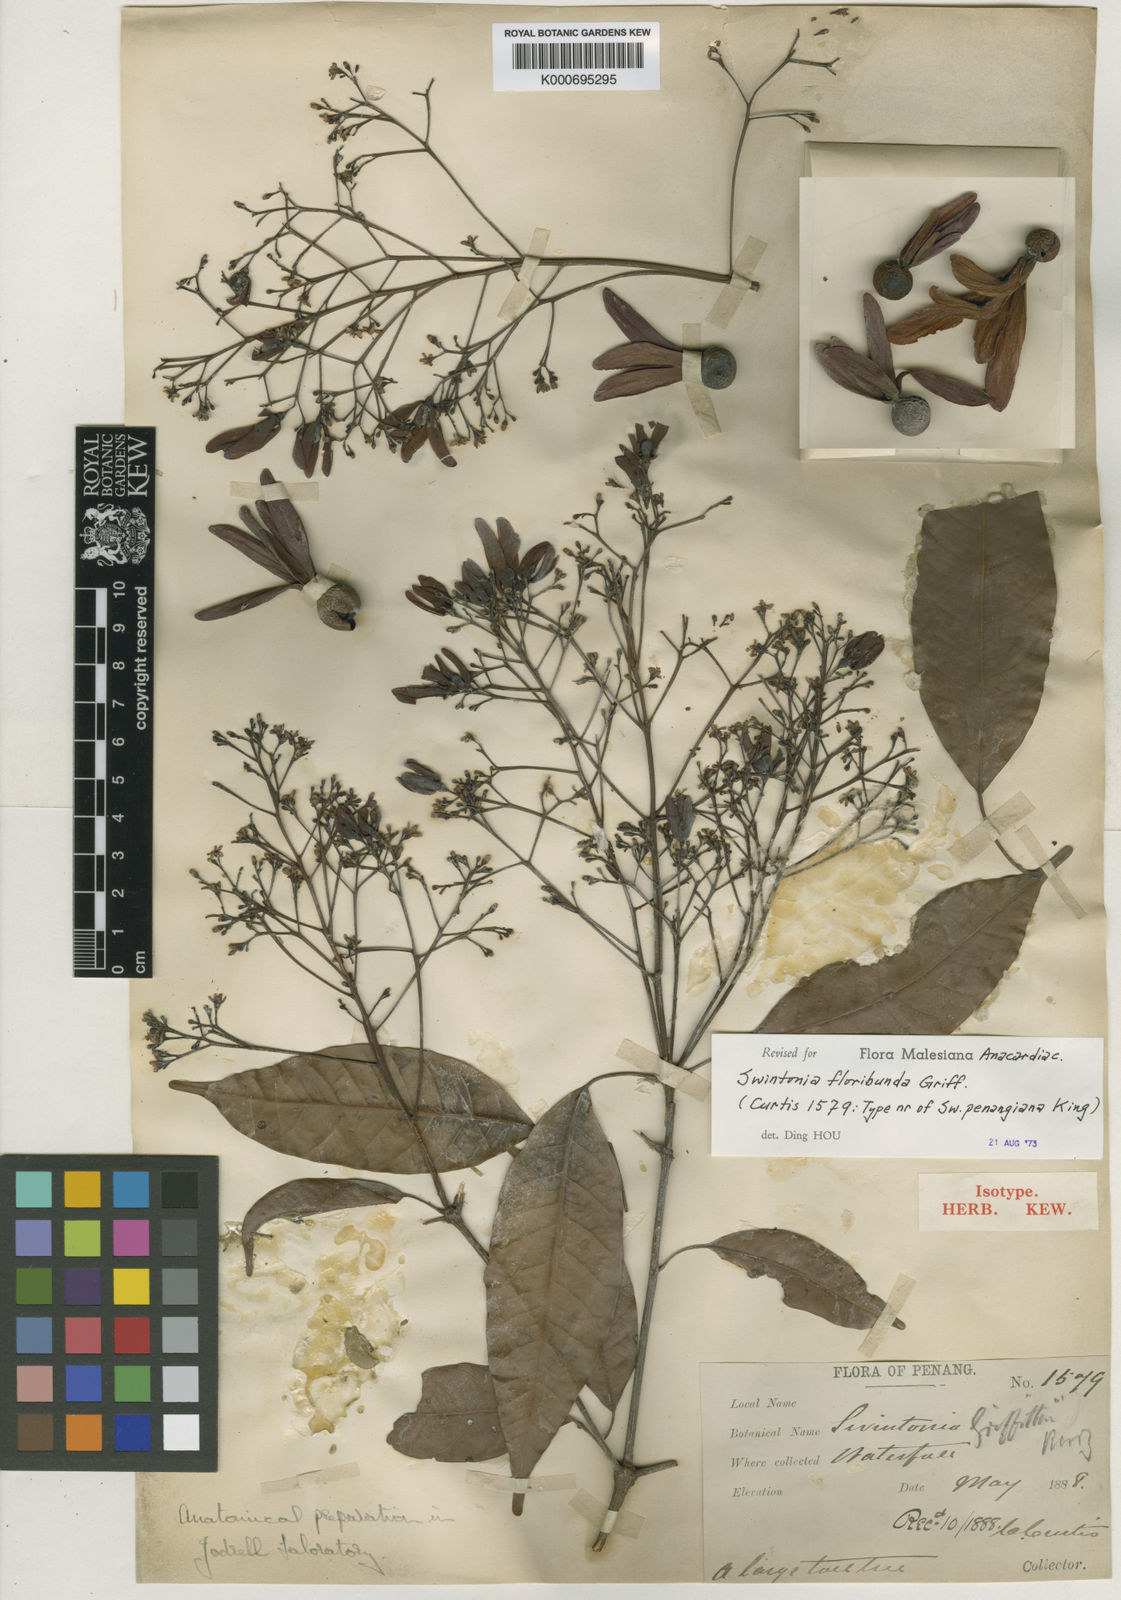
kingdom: Plantae
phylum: Tracheophyta
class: Magnoliopsida
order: Sapindales
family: Anacardiaceae
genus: Swintonia
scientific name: Swintonia floribunda
